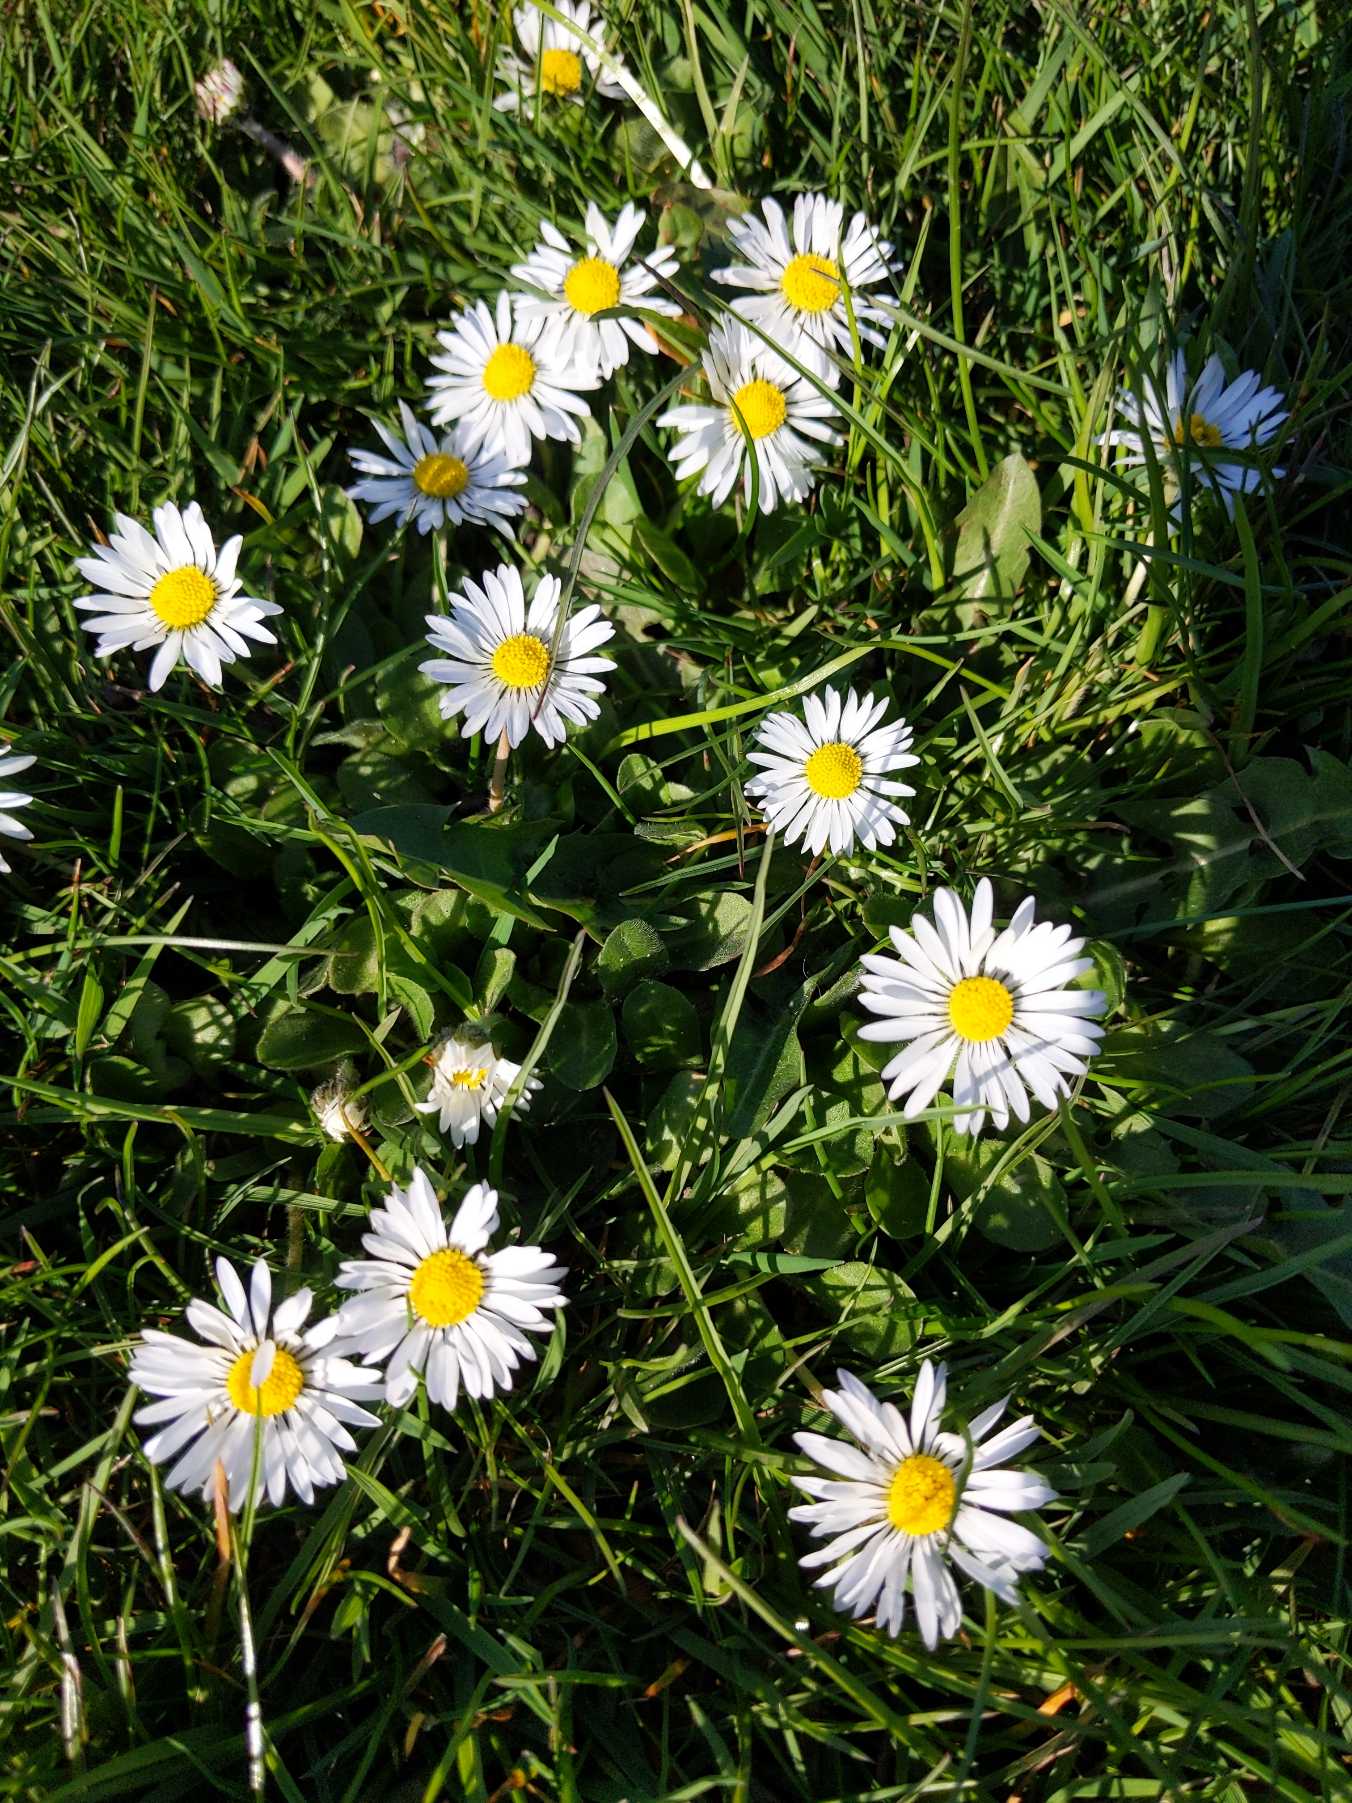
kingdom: Plantae
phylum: Tracheophyta
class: Magnoliopsida
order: Asterales
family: Asteraceae
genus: Bellis
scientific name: Bellis perennis
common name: Tusindfryd
